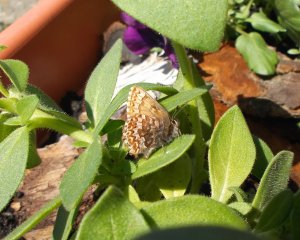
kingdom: Animalia
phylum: Arthropoda
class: Insecta
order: Lepidoptera
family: Lycaenidae
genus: Incisalia
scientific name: Incisalia eryphon
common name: Western Pine Elfin
